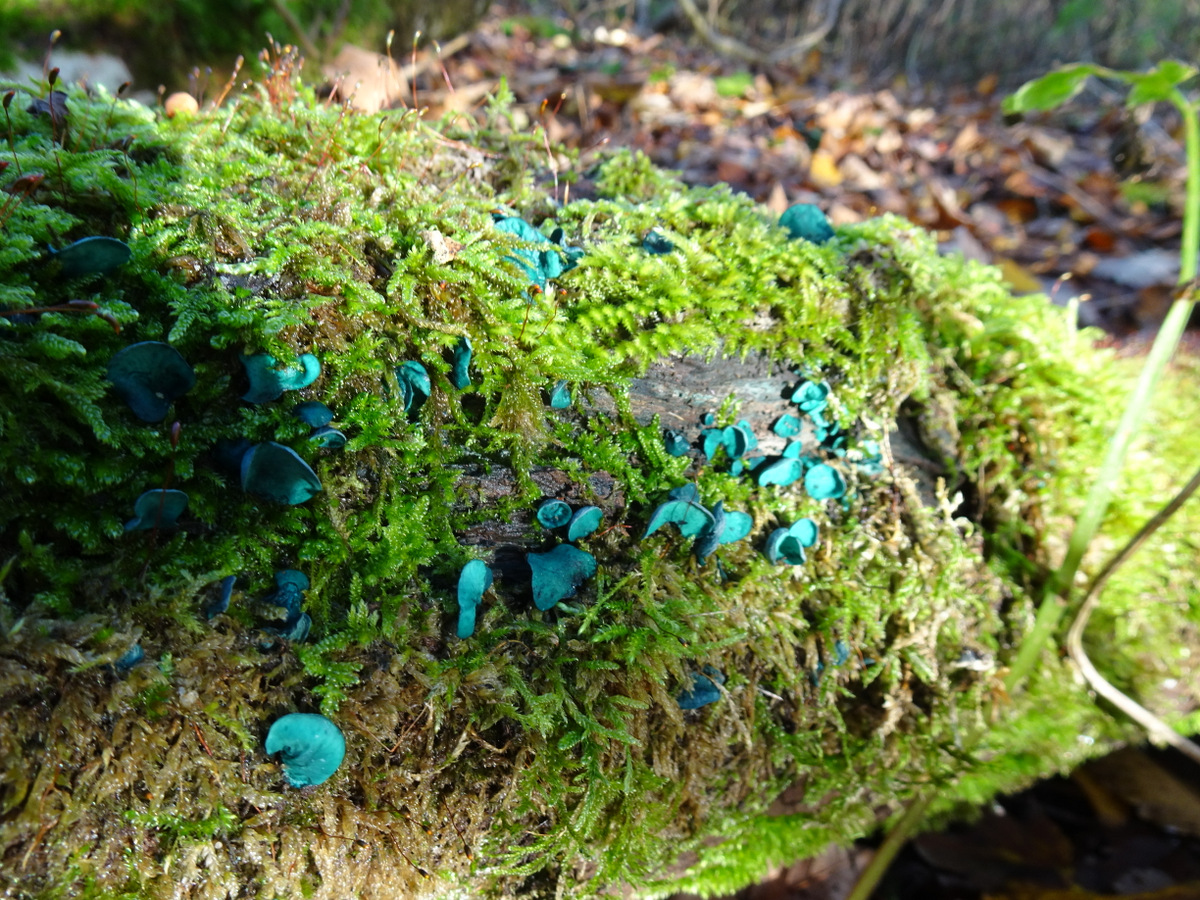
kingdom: Fungi
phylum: Ascomycota
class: Leotiomycetes
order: Helotiales
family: Chlorociboriaceae
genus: Chlorociboria
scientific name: Chlorociboria aeruginascens
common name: almindelig grønskive
